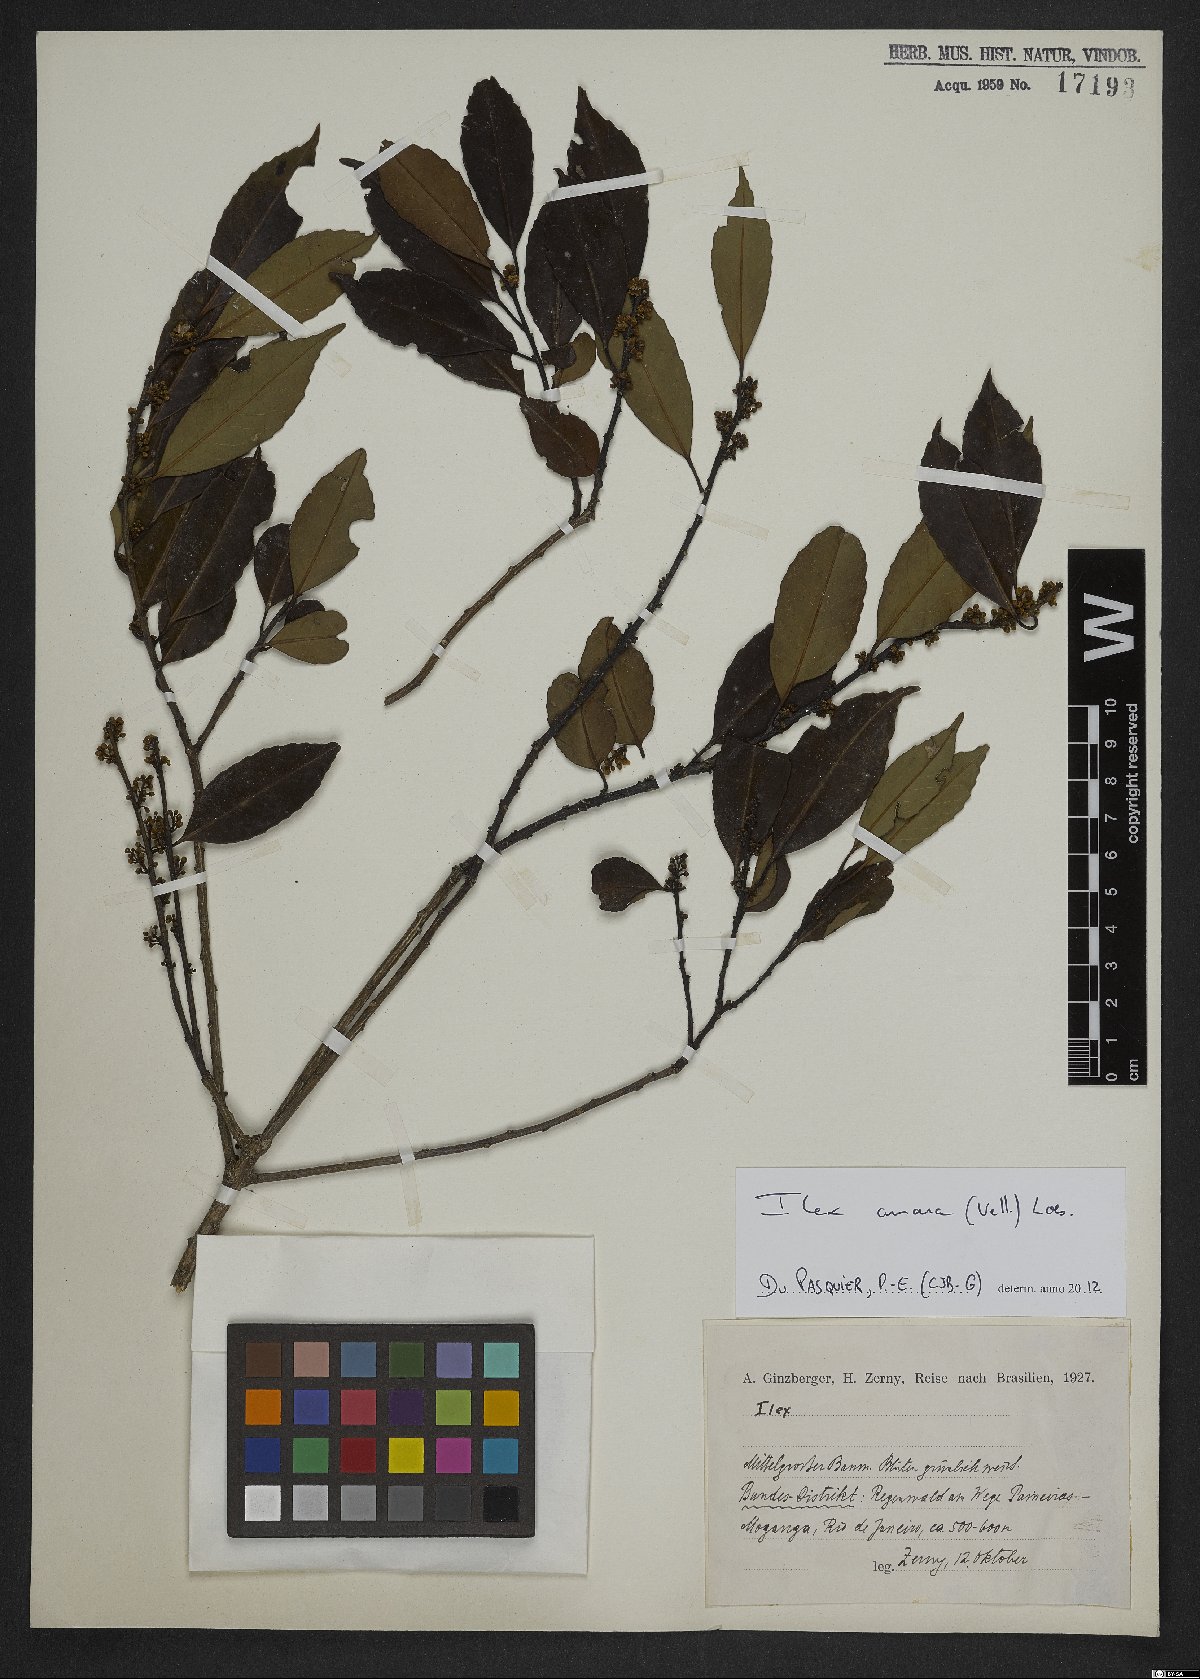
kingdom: Plantae
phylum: Tracheophyta
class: Magnoliopsida
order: Aquifoliales
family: Aquifoliaceae
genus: Ilex
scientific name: Ilex dumosa
